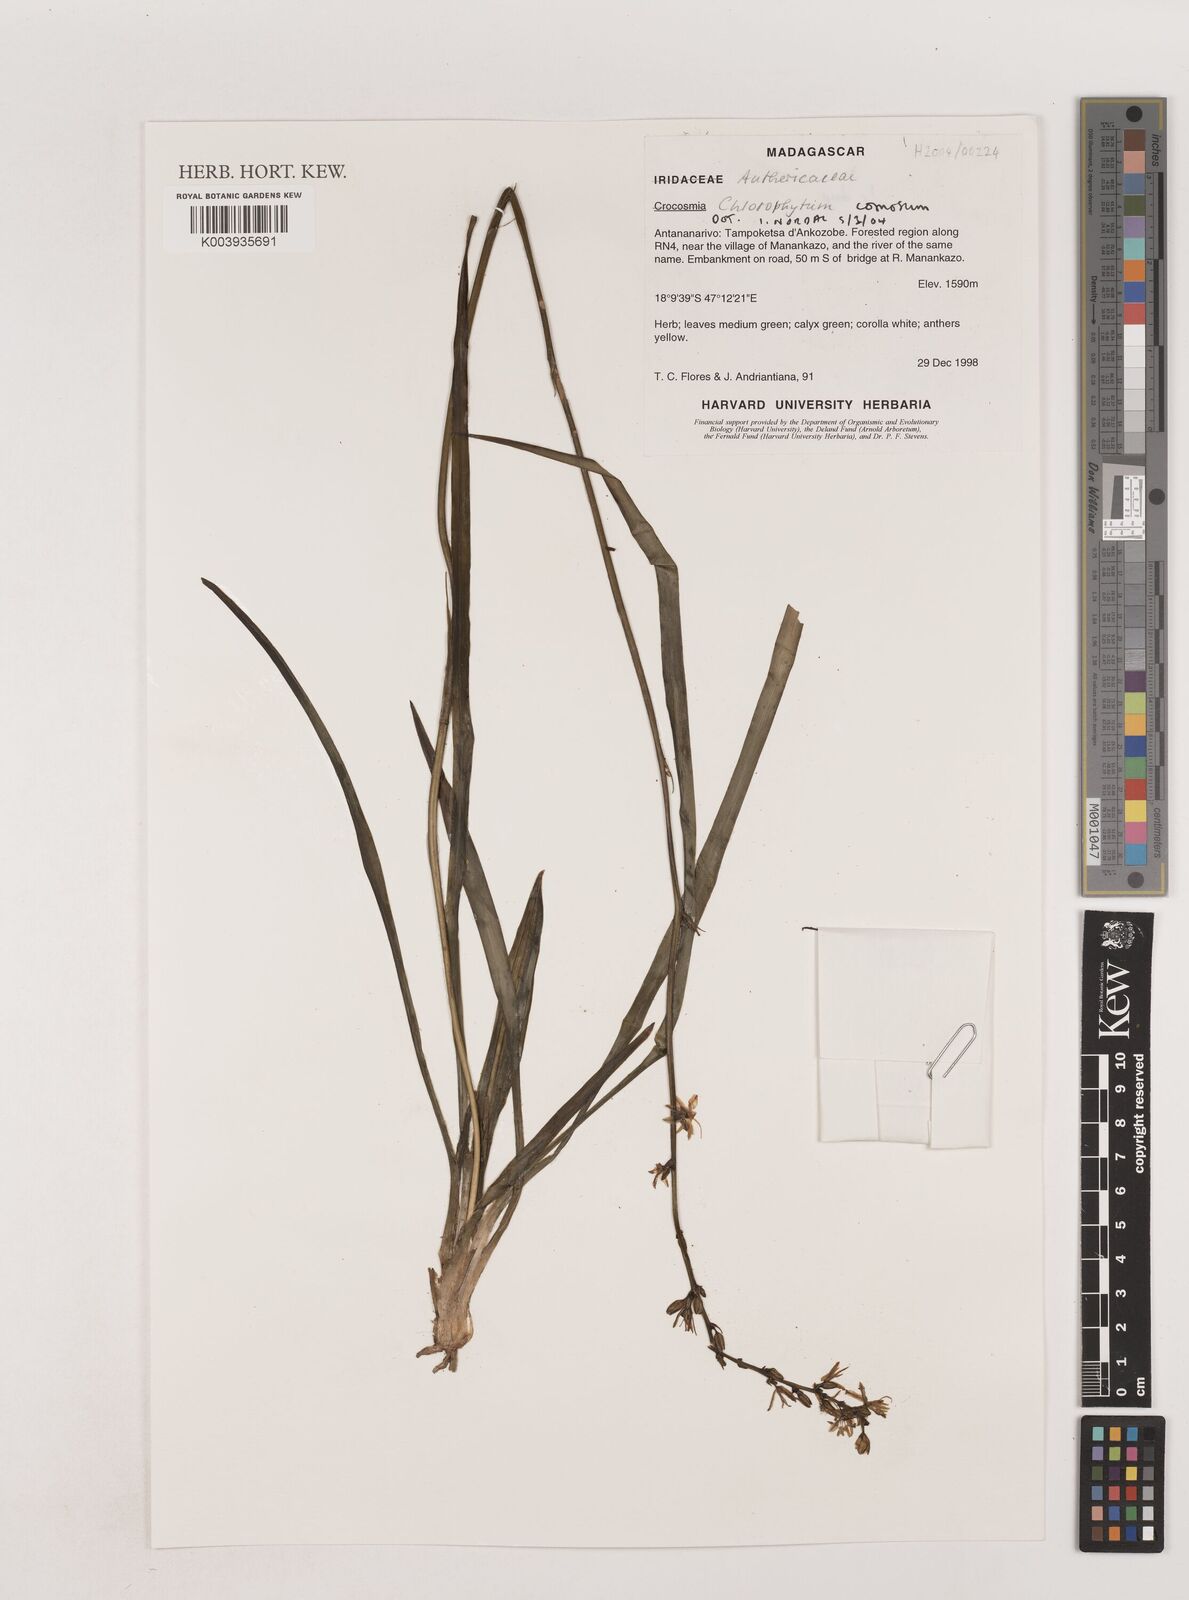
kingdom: Plantae
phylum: Tracheophyta
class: Liliopsida
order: Asparagales
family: Asparagaceae
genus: Chlorophytum
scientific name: Chlorophytum comosum
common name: Spider plant
